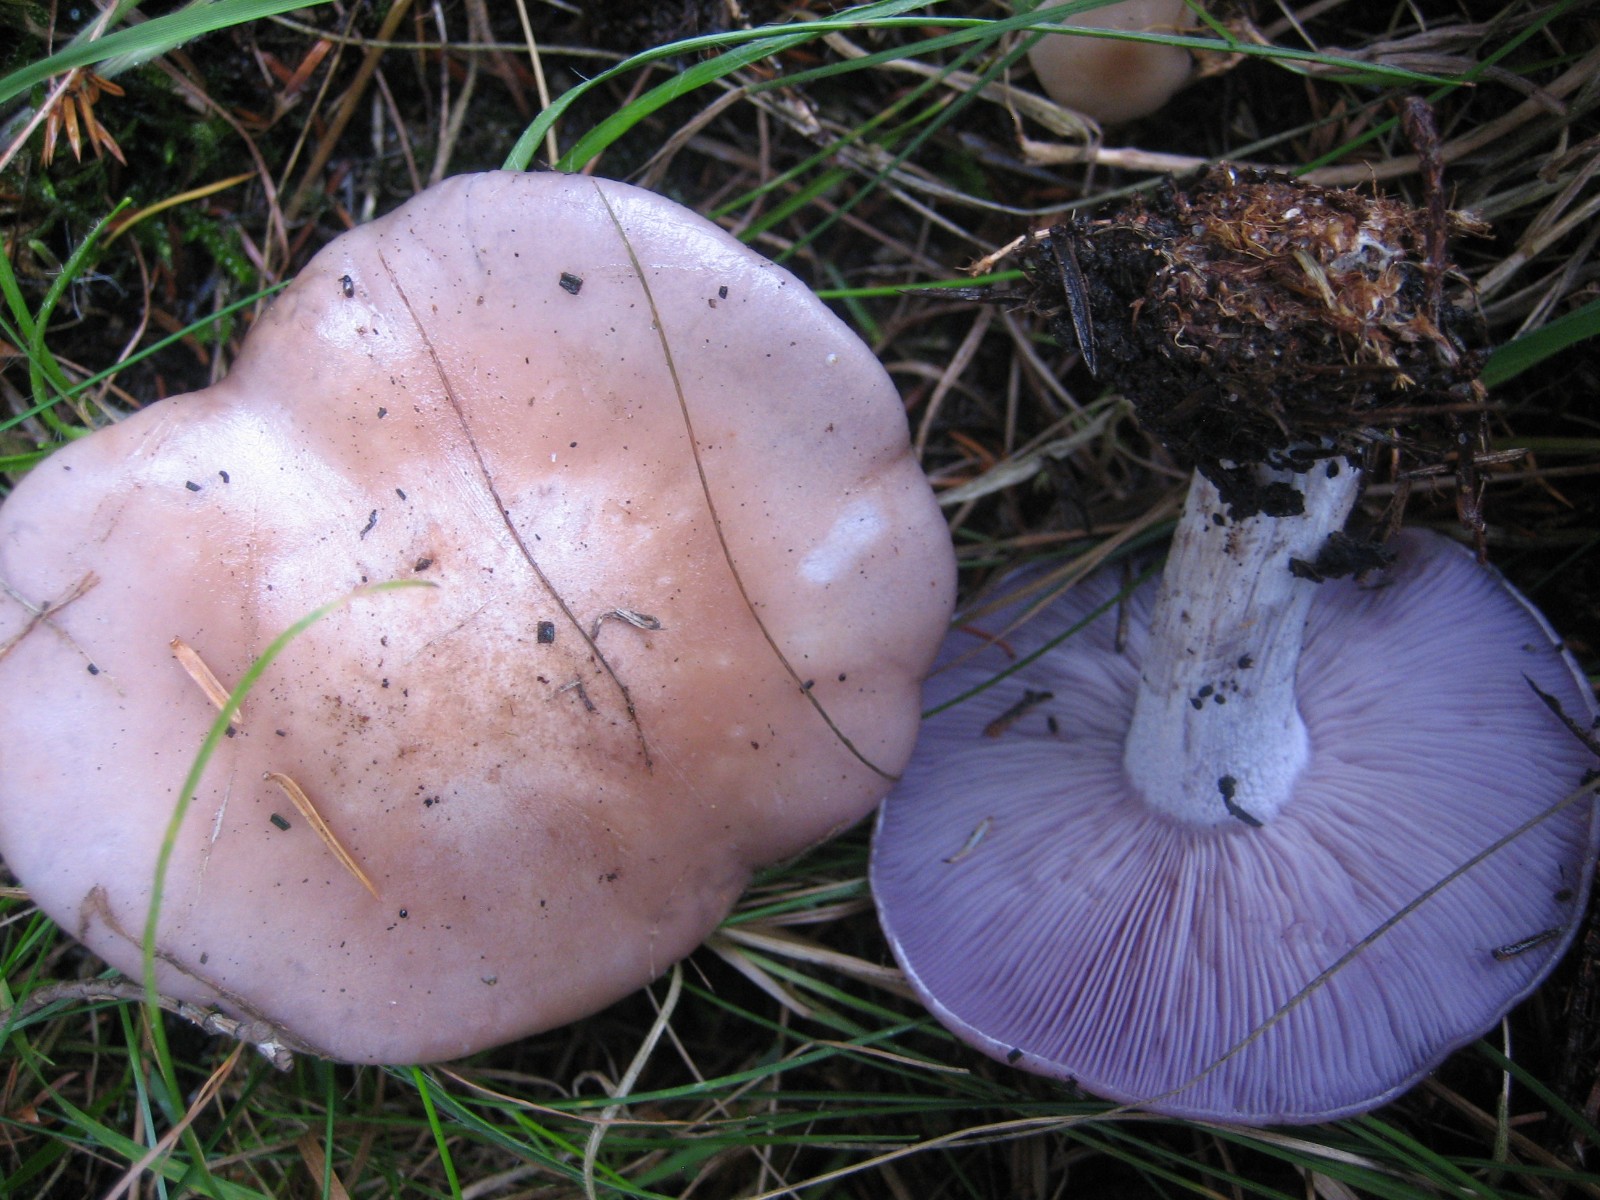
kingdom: Fungi
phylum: Basidiomycota
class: Agaricomycetes
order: Agaricales
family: Tricholomataceae
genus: Lepista
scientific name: Lepista nuda
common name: violet hekseringshat
